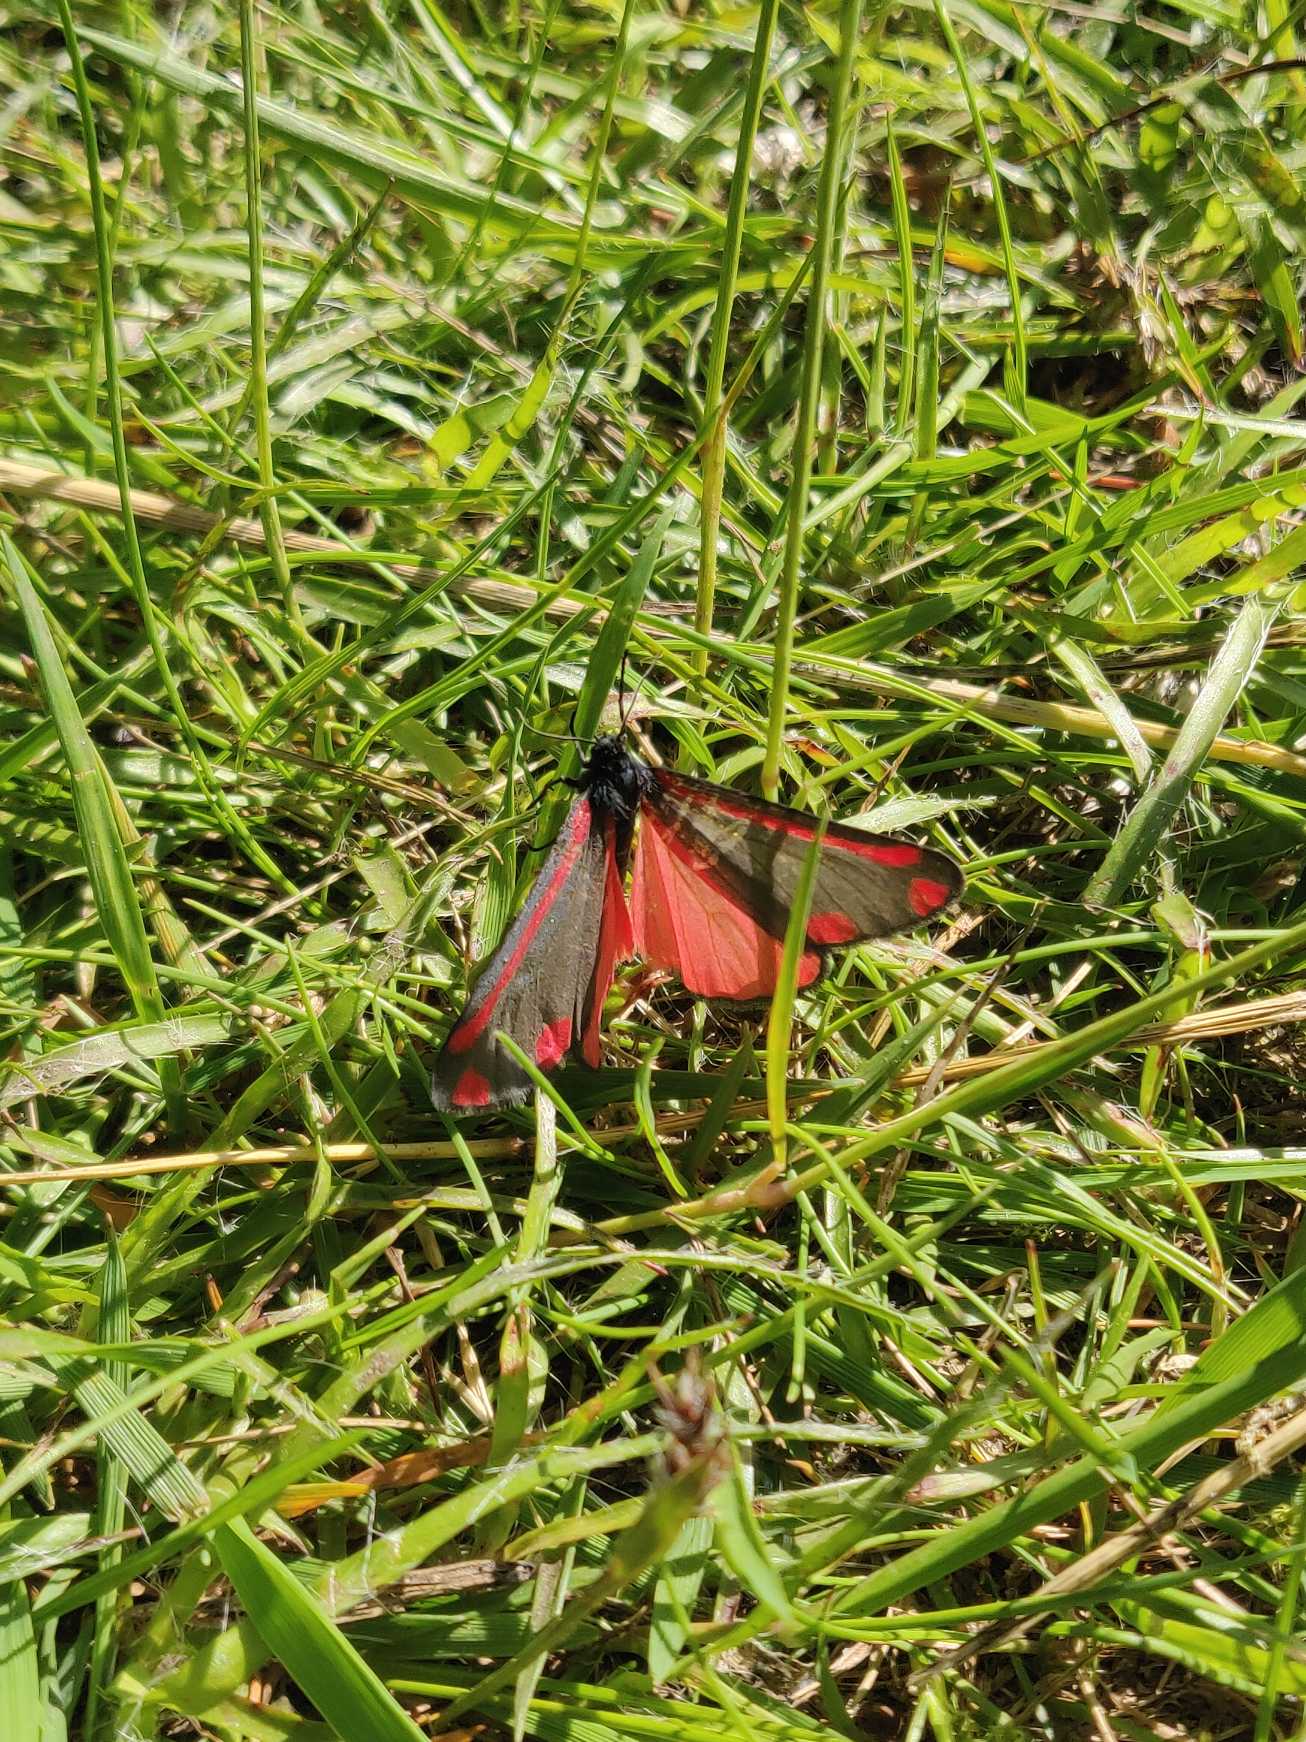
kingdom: Animalia
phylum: Arthropoda
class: Insecta
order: Lepidoptera
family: Erebidae
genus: Tyria
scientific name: Tyria jacobaeae
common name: Blodplet
